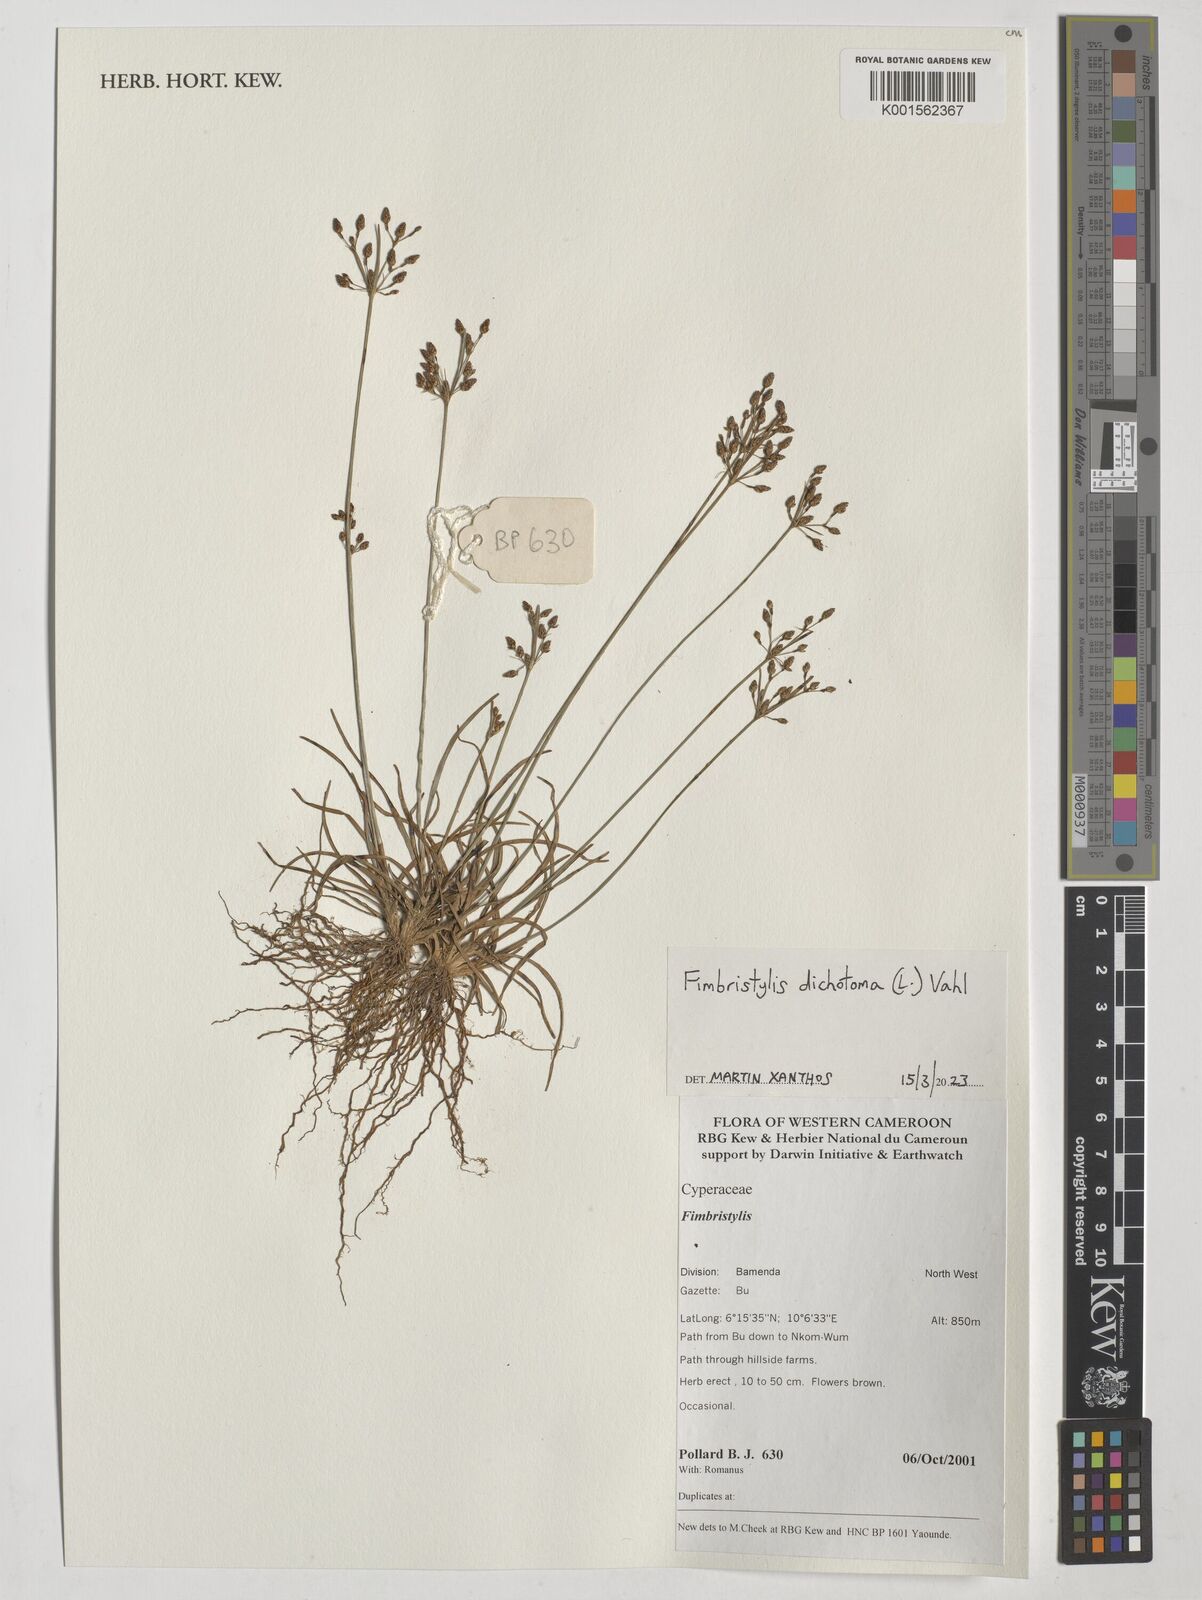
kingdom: Plantae
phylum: Tracheophyta
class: Liliopsida
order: Poales
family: Cyperaceae
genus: Fimbristylis
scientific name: Fimbristylis dichotoma
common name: Forked fimbry
